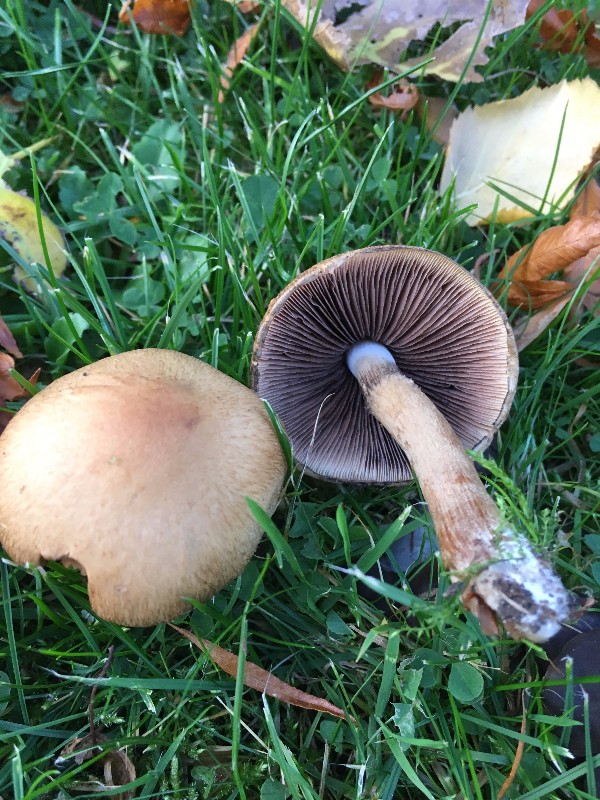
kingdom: Fungi
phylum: Basidiomycota
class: Agaricomycetes
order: Agaricales
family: Psathyrellaceae
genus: Lacrymaria
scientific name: Lacrymaria lacrymabunda
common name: grædende mørkhat
